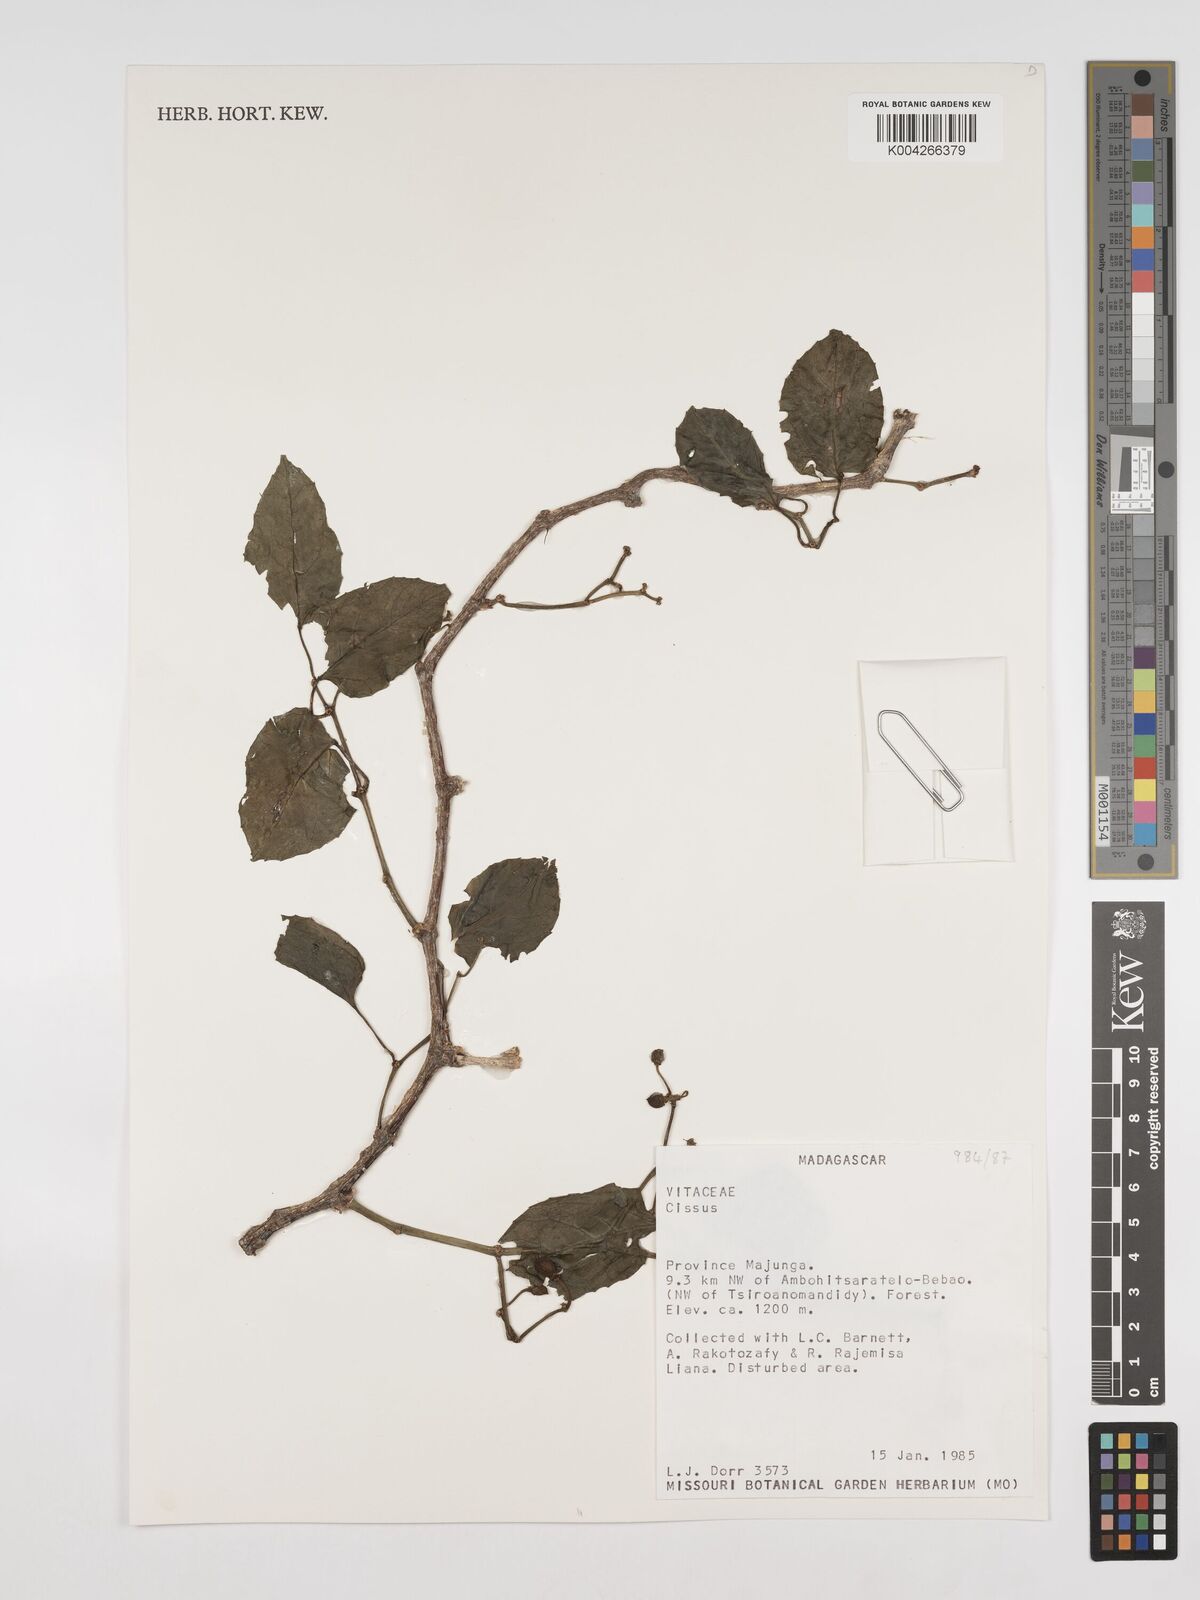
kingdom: Plantae
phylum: Tracheophyta
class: Magnoliopsida
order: Vitales
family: Vitaceae
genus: Cissus
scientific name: Cissus
